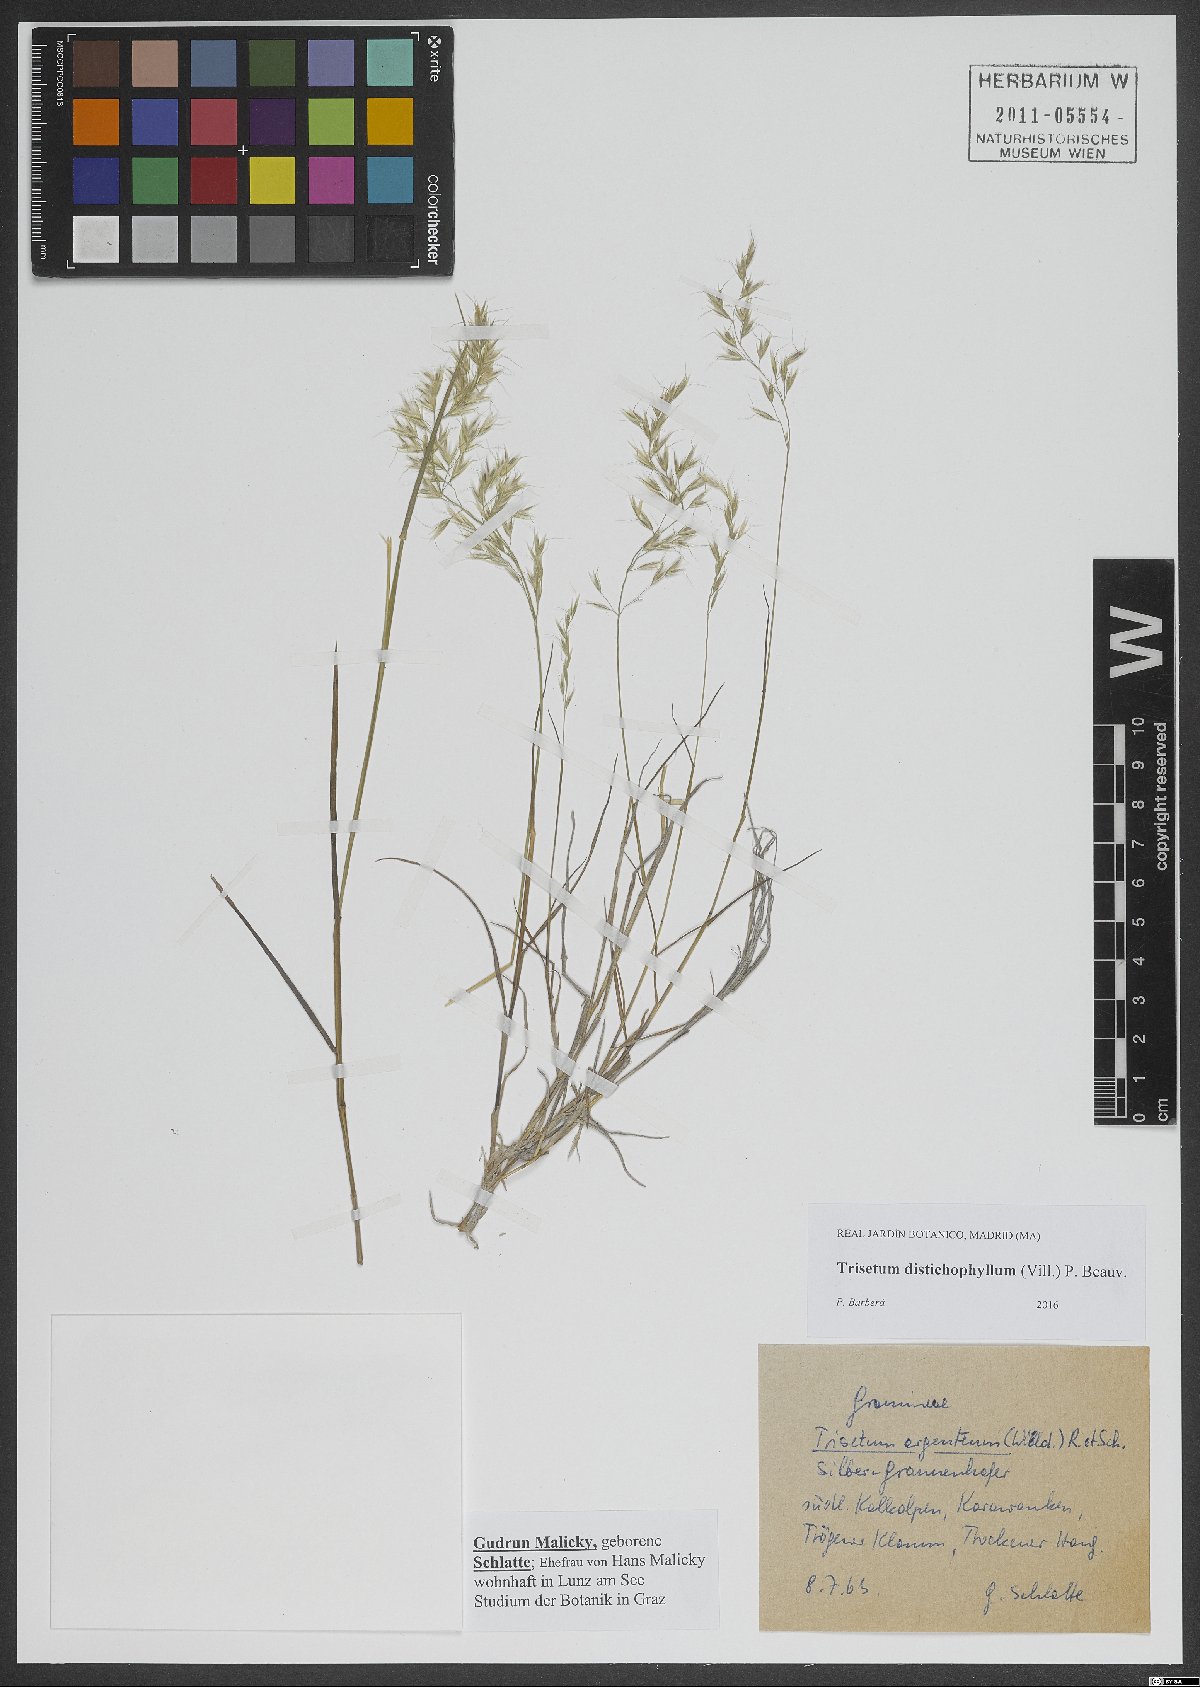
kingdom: Plantae
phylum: Tracheophyta
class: Liliopsida
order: Poales
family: Poaceae
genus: Acrospelion
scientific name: Acrospelion distichophyllum
